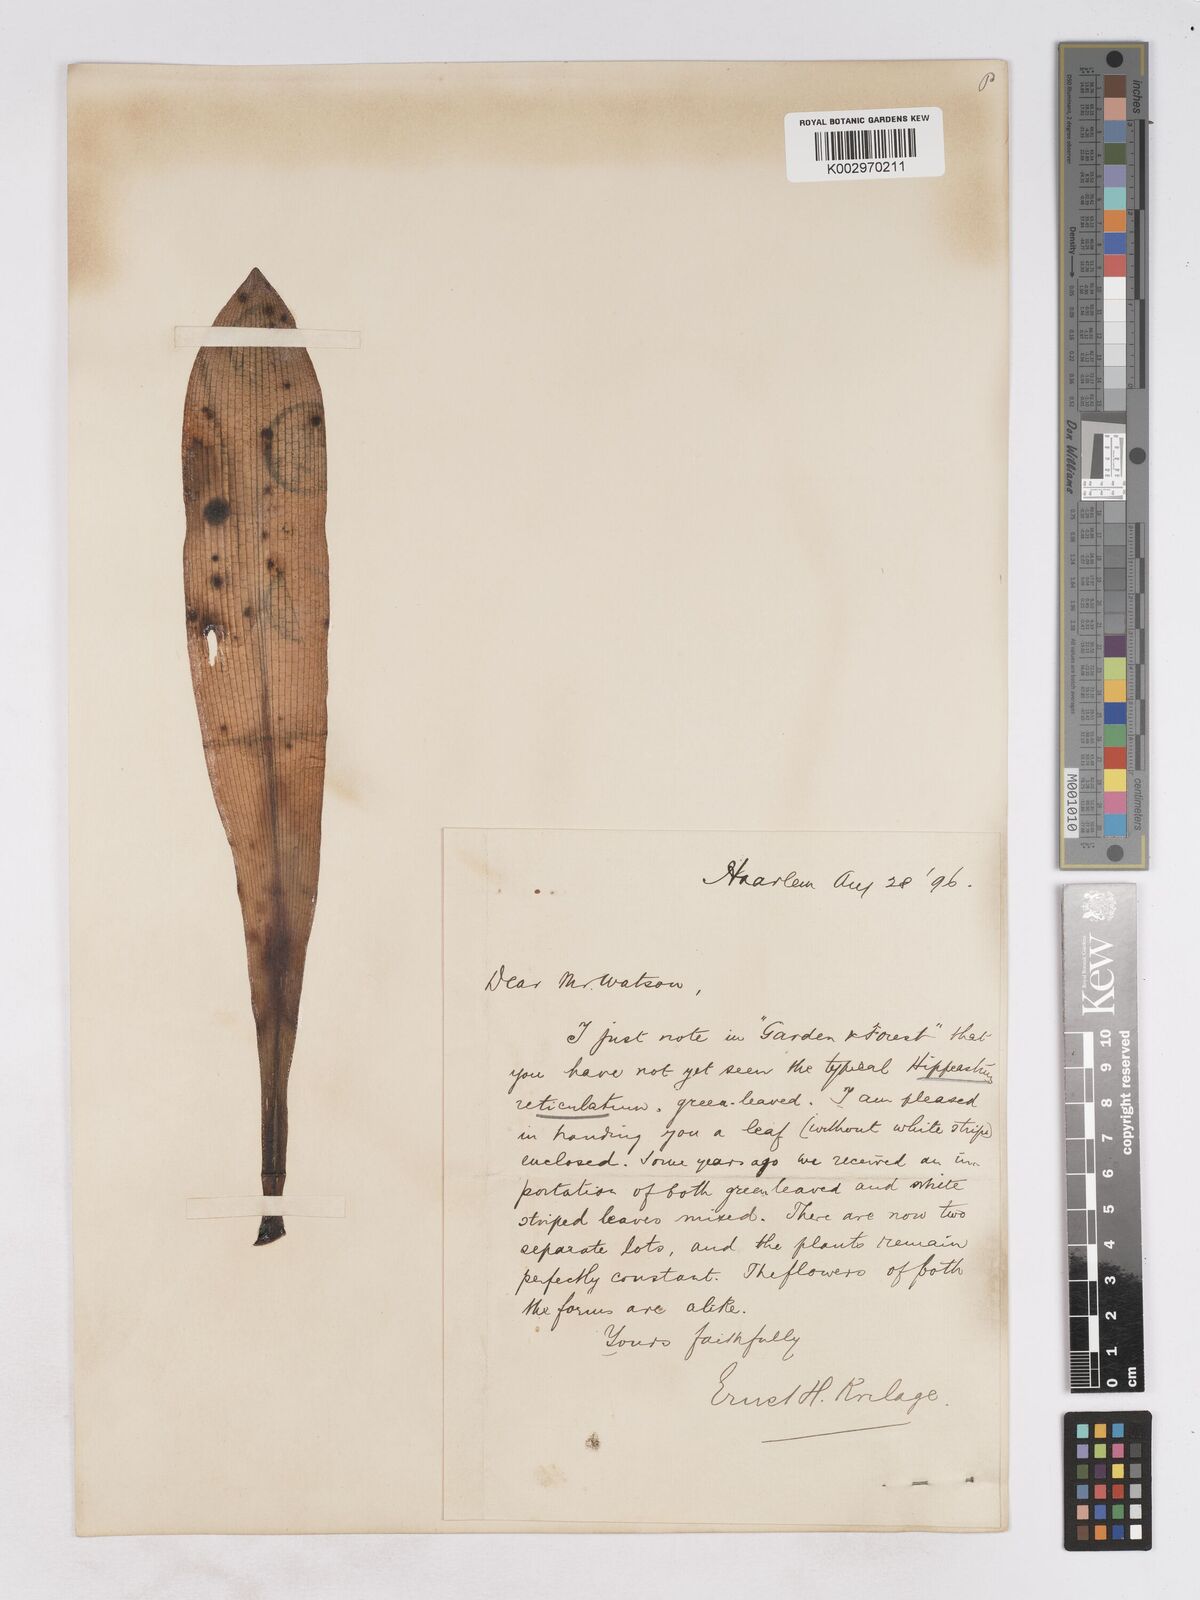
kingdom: Plantae
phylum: Tracheophyta
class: Liliopsida
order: Asparagales
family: Amaryllidaceae
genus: Hippeastrum
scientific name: Hippeastrum reticulatum
